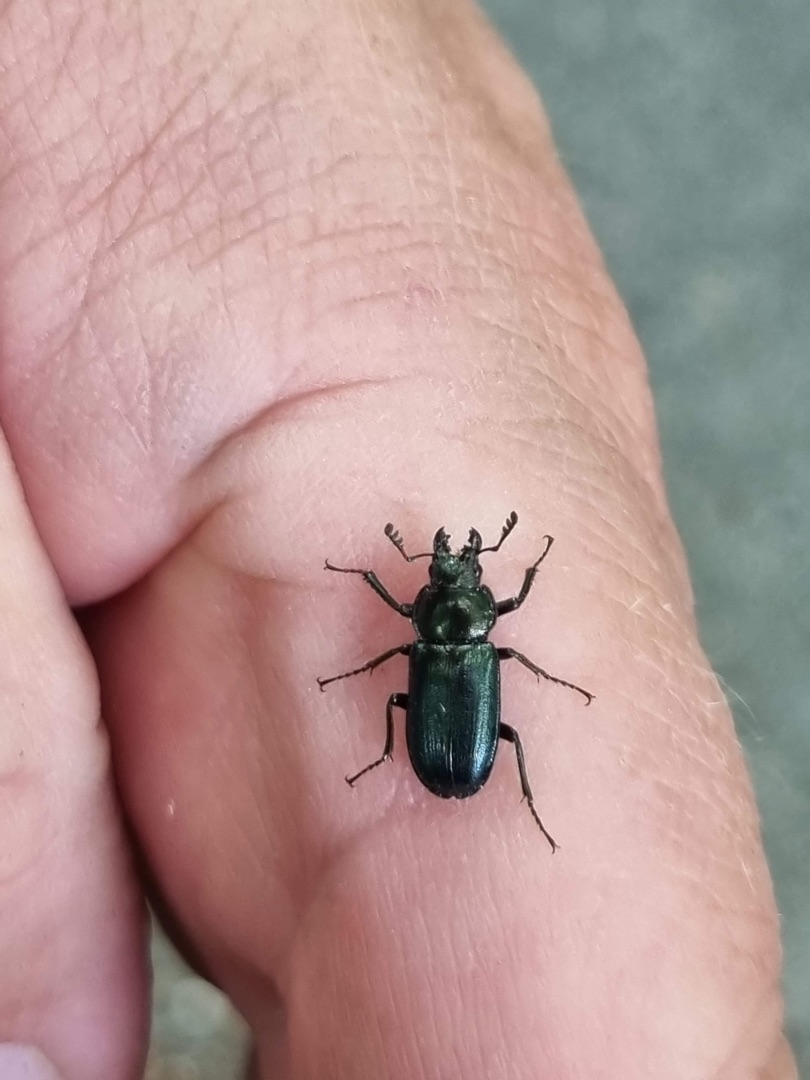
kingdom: Animalia
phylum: Arthropoda
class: Insecta
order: Coleoptera
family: Lucanidae
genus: Platycerus
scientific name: Platycerus caraboides
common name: Blåhjort
